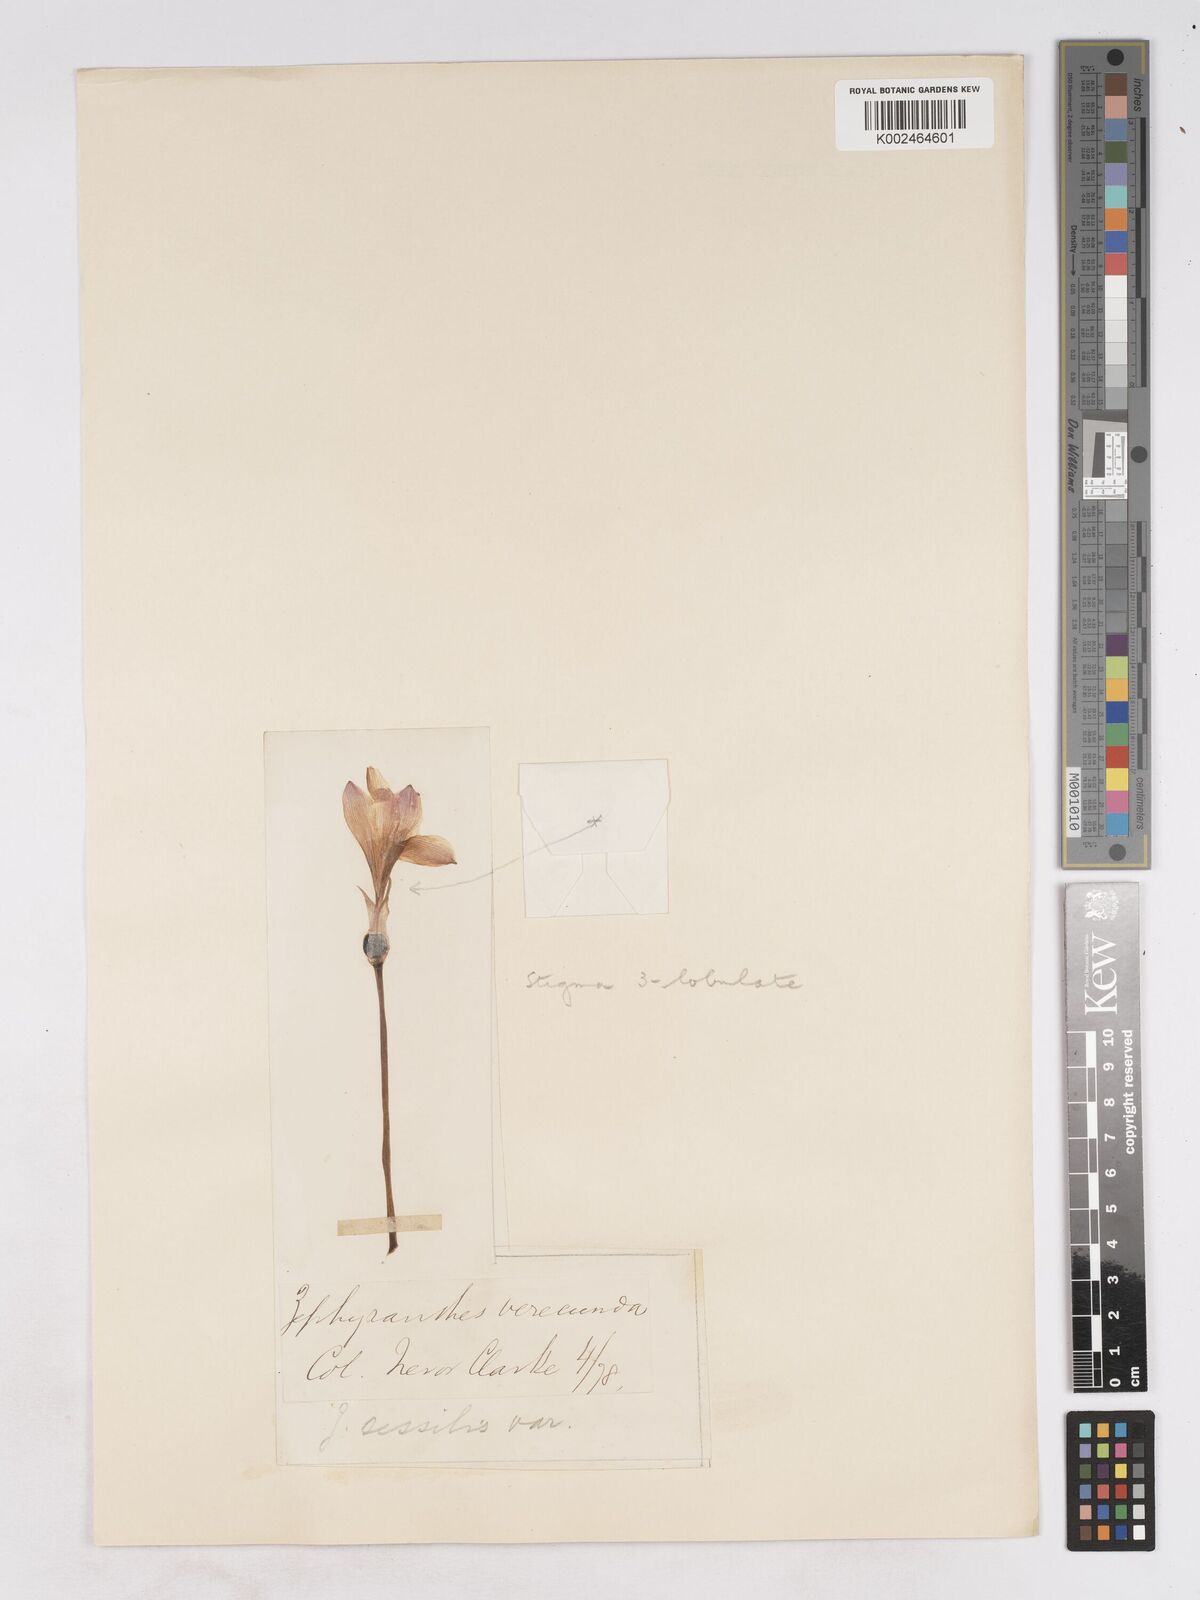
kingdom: Plantae
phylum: Tracheophyta
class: Liliopsida
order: Asparagales
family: Amaryllidaceae
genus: Zephyranthes
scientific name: Zephyranthes minuta
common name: Pink rain lily
